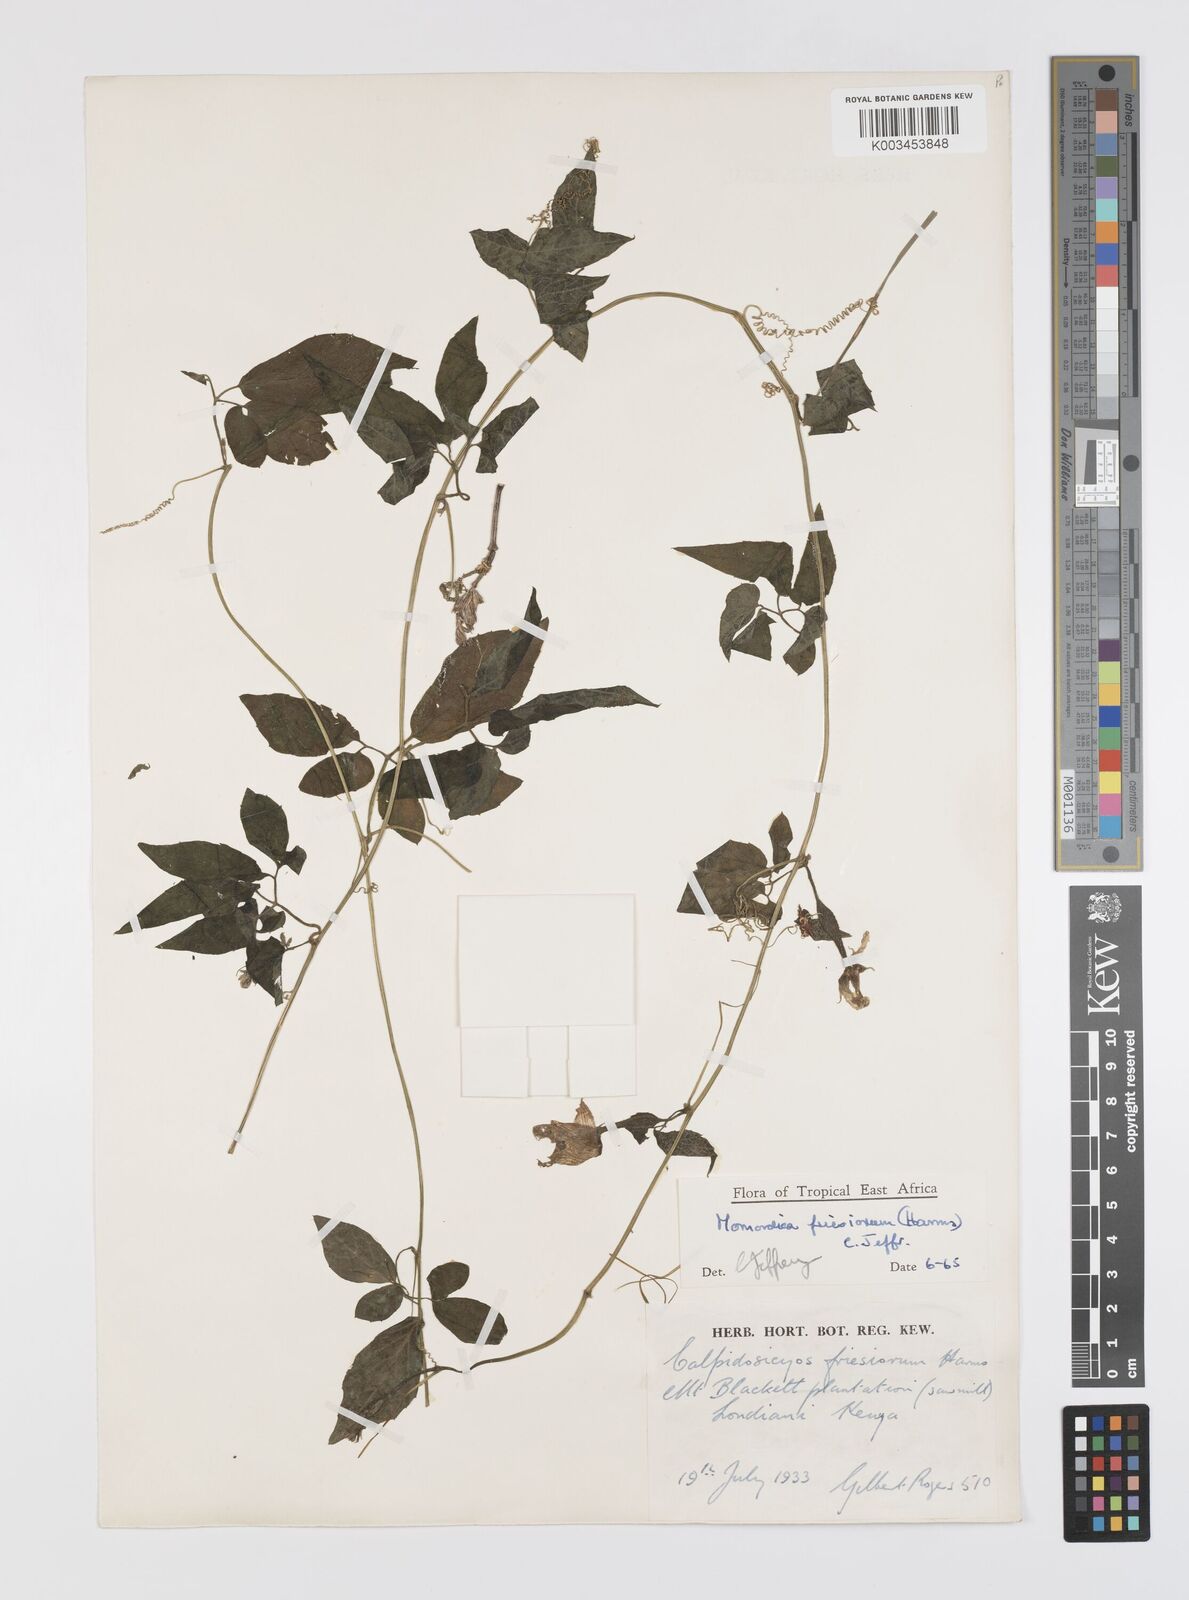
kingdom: Plantae
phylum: Tracheophyta
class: Magnoliopsida
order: Cucurbitales
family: Cucurbitaceae
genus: Momordica
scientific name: Momordica friesiorum
